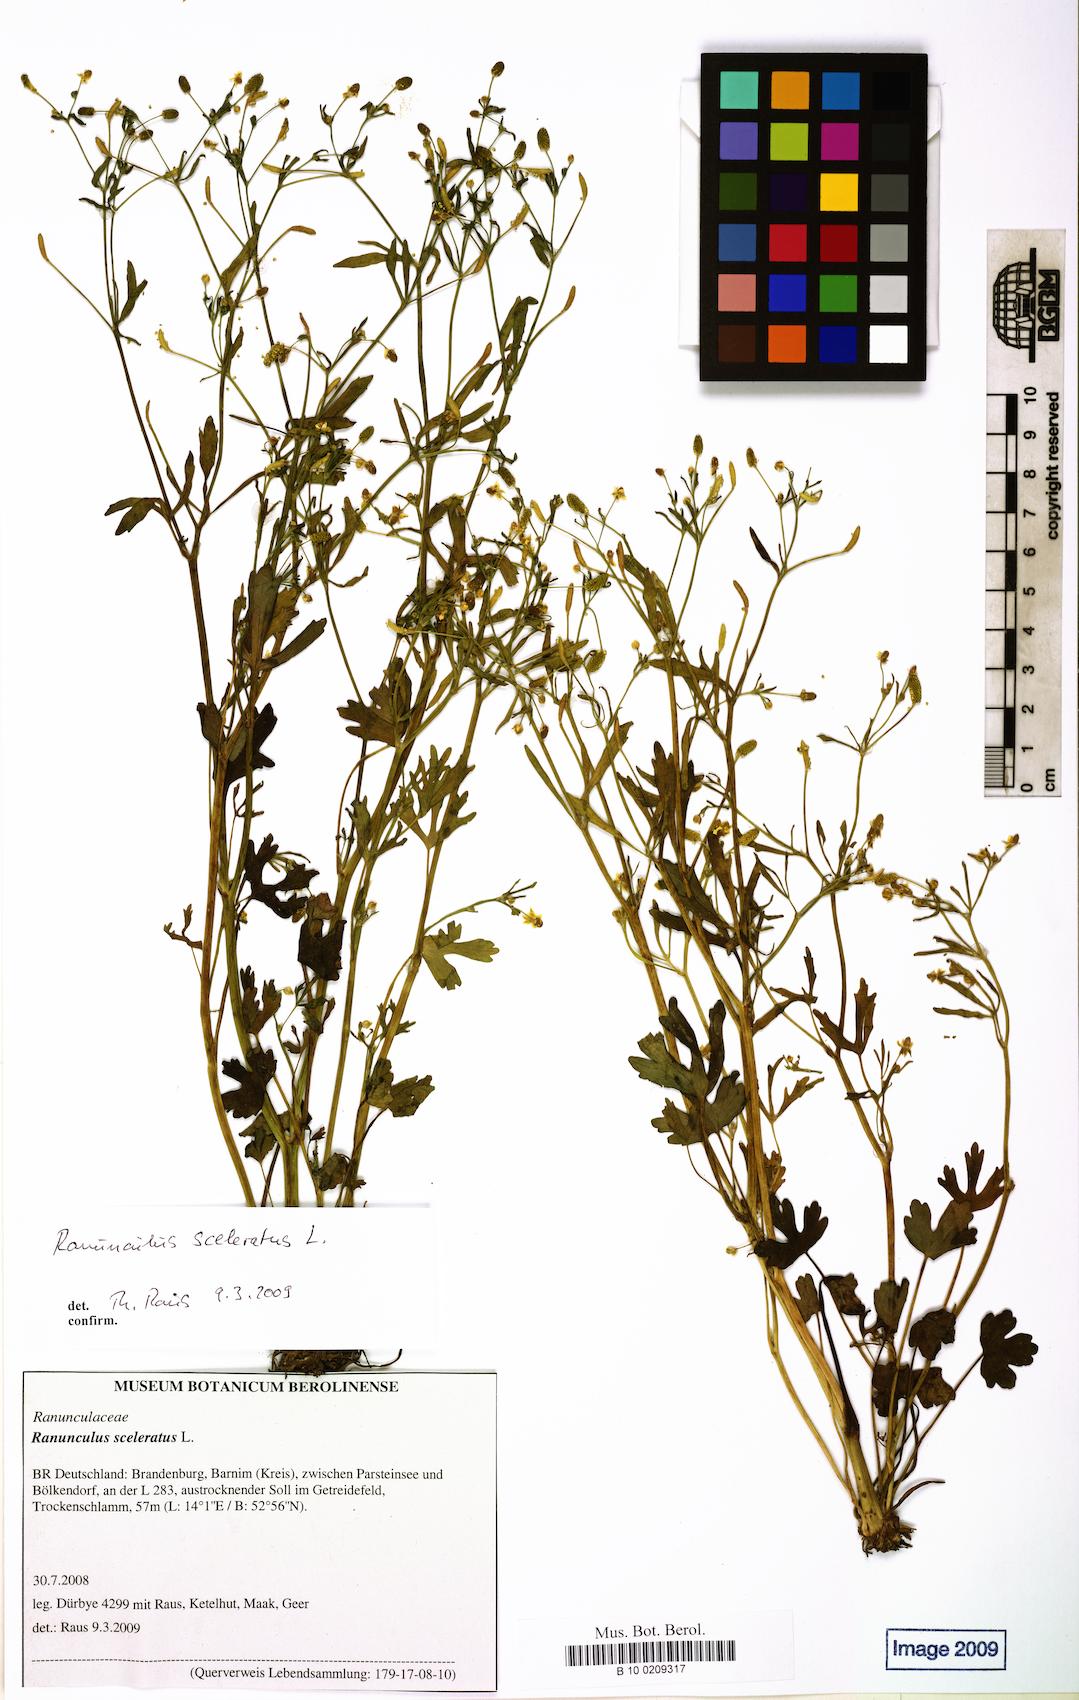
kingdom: Plantae
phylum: Tracheophyta
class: Magnoliopsida
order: Ranunculales
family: Ranunculaceae
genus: Ranunculus
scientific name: Ranunculus sceleratus
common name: Celery-leaved buttercup
